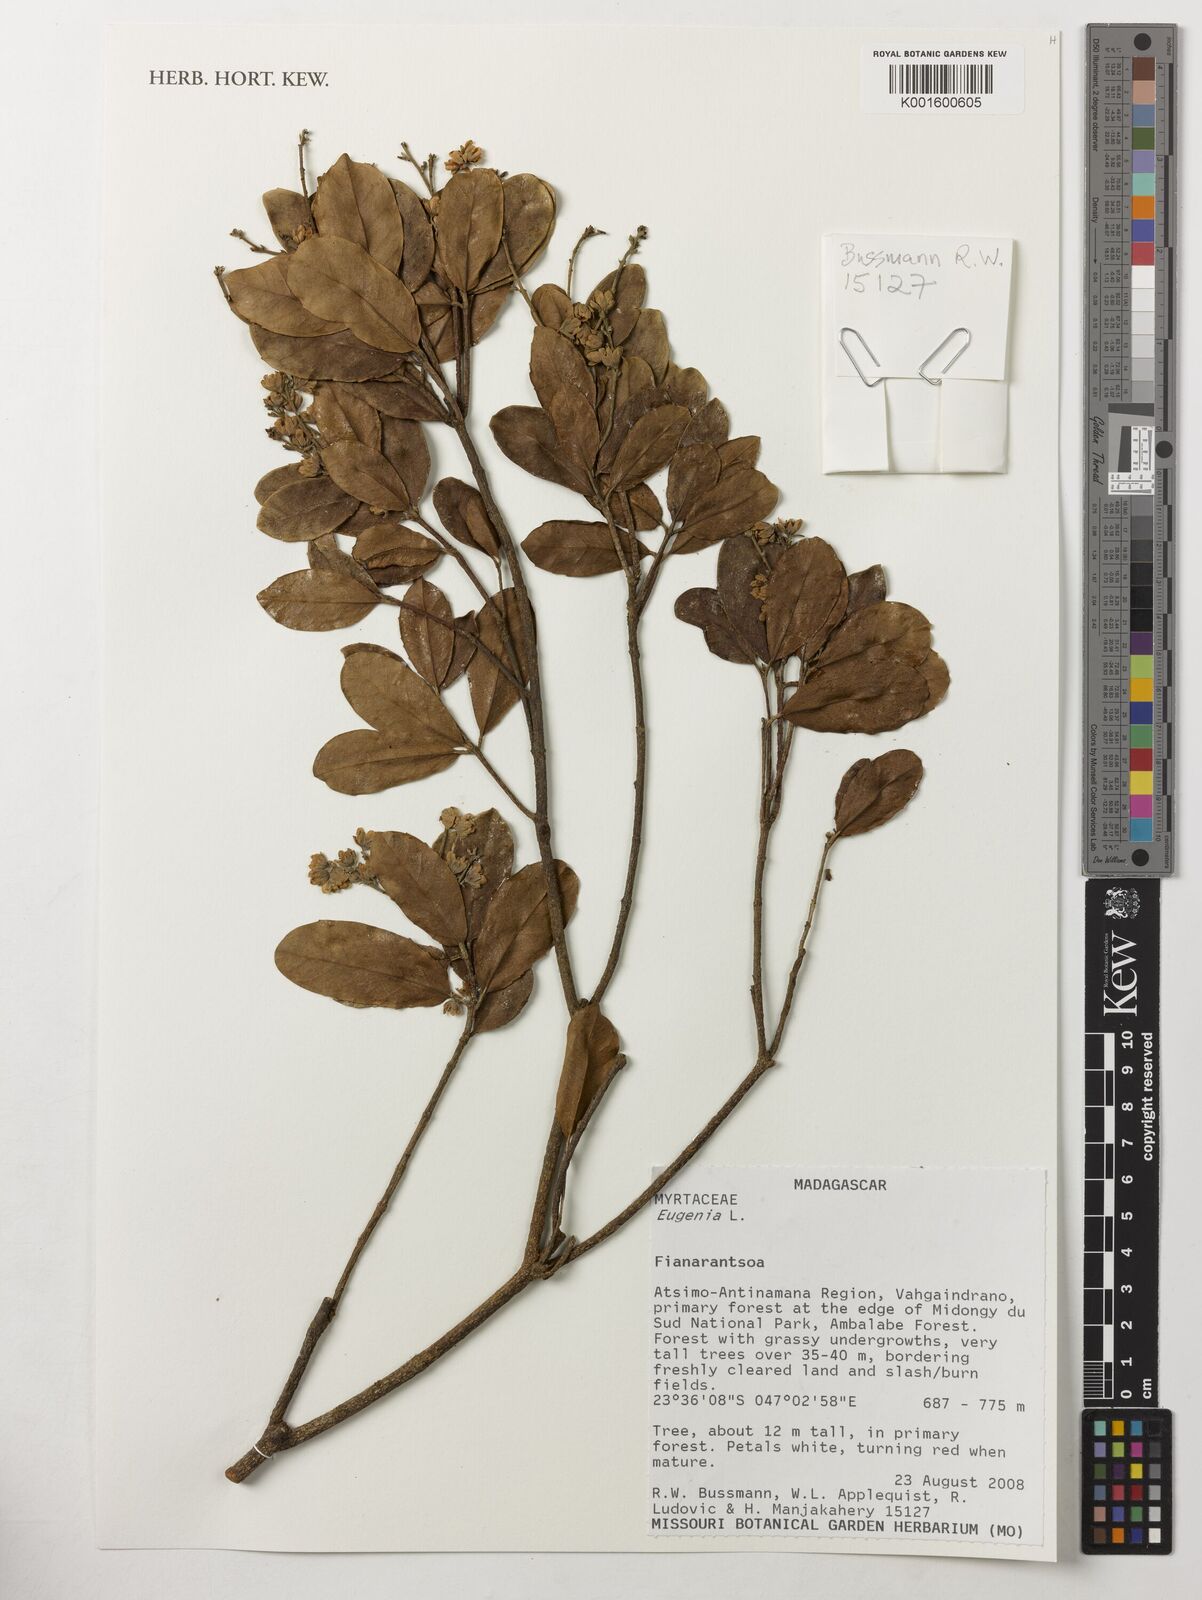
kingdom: Plantae
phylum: Tracheophyta
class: Magnoliopsida
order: Myrtales
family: Myrtaceae
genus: Eugenia
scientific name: Eugenia
